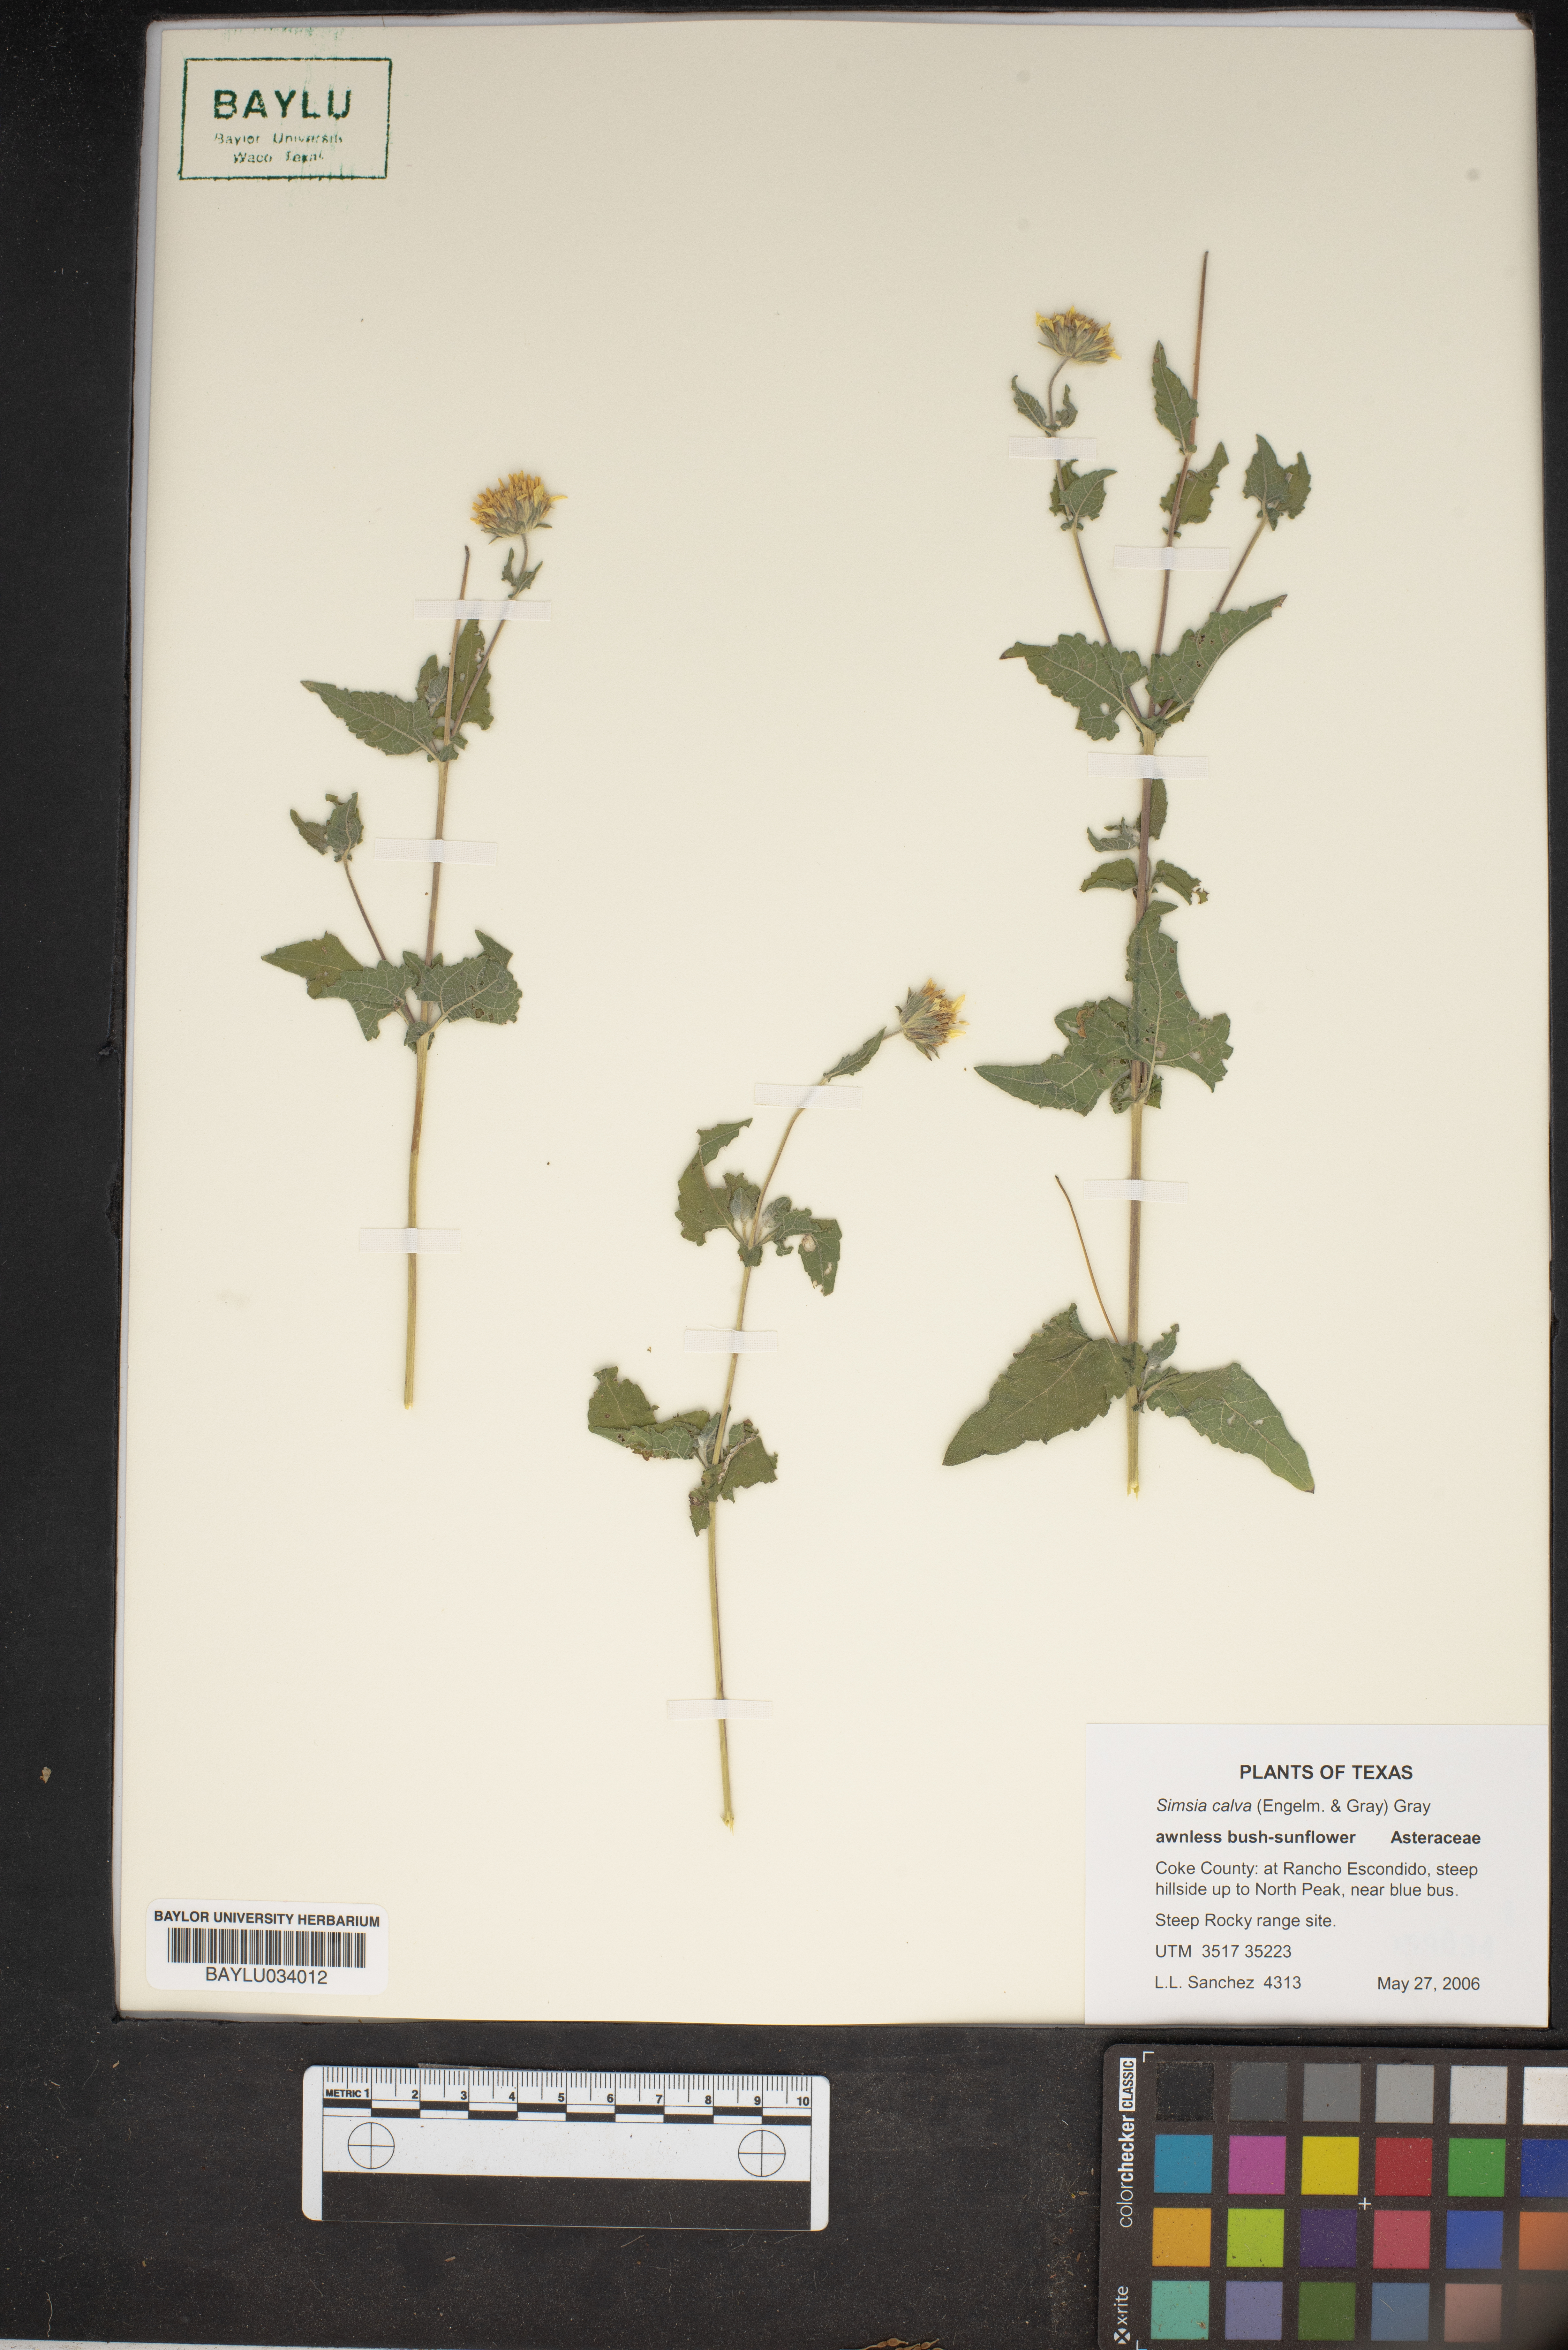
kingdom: Plantae
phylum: Tracheophyta
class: Magnoliopsida
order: Asterales
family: Asteraceae
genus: Simsia
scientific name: Simsia calva
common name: Awnless bush-sunflower
